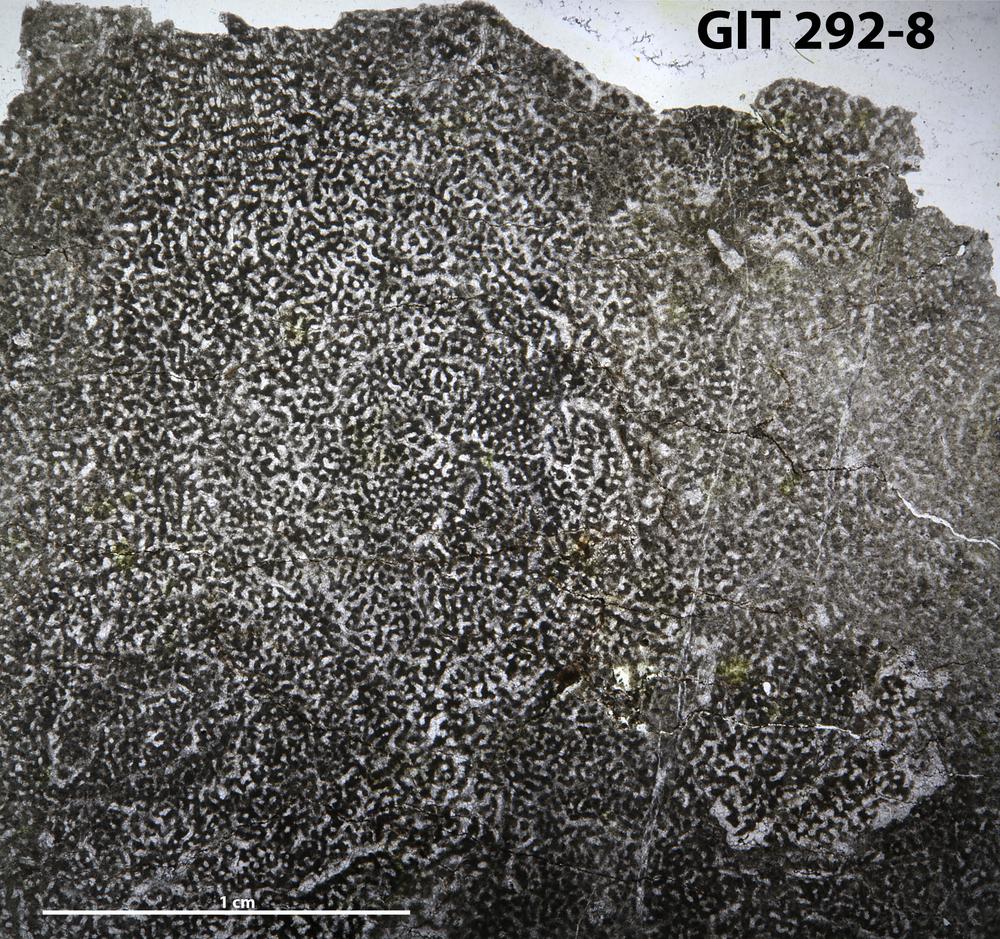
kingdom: Animalia
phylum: Porifera
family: Syringostromellidae
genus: Syringostromella
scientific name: Syringostromella
